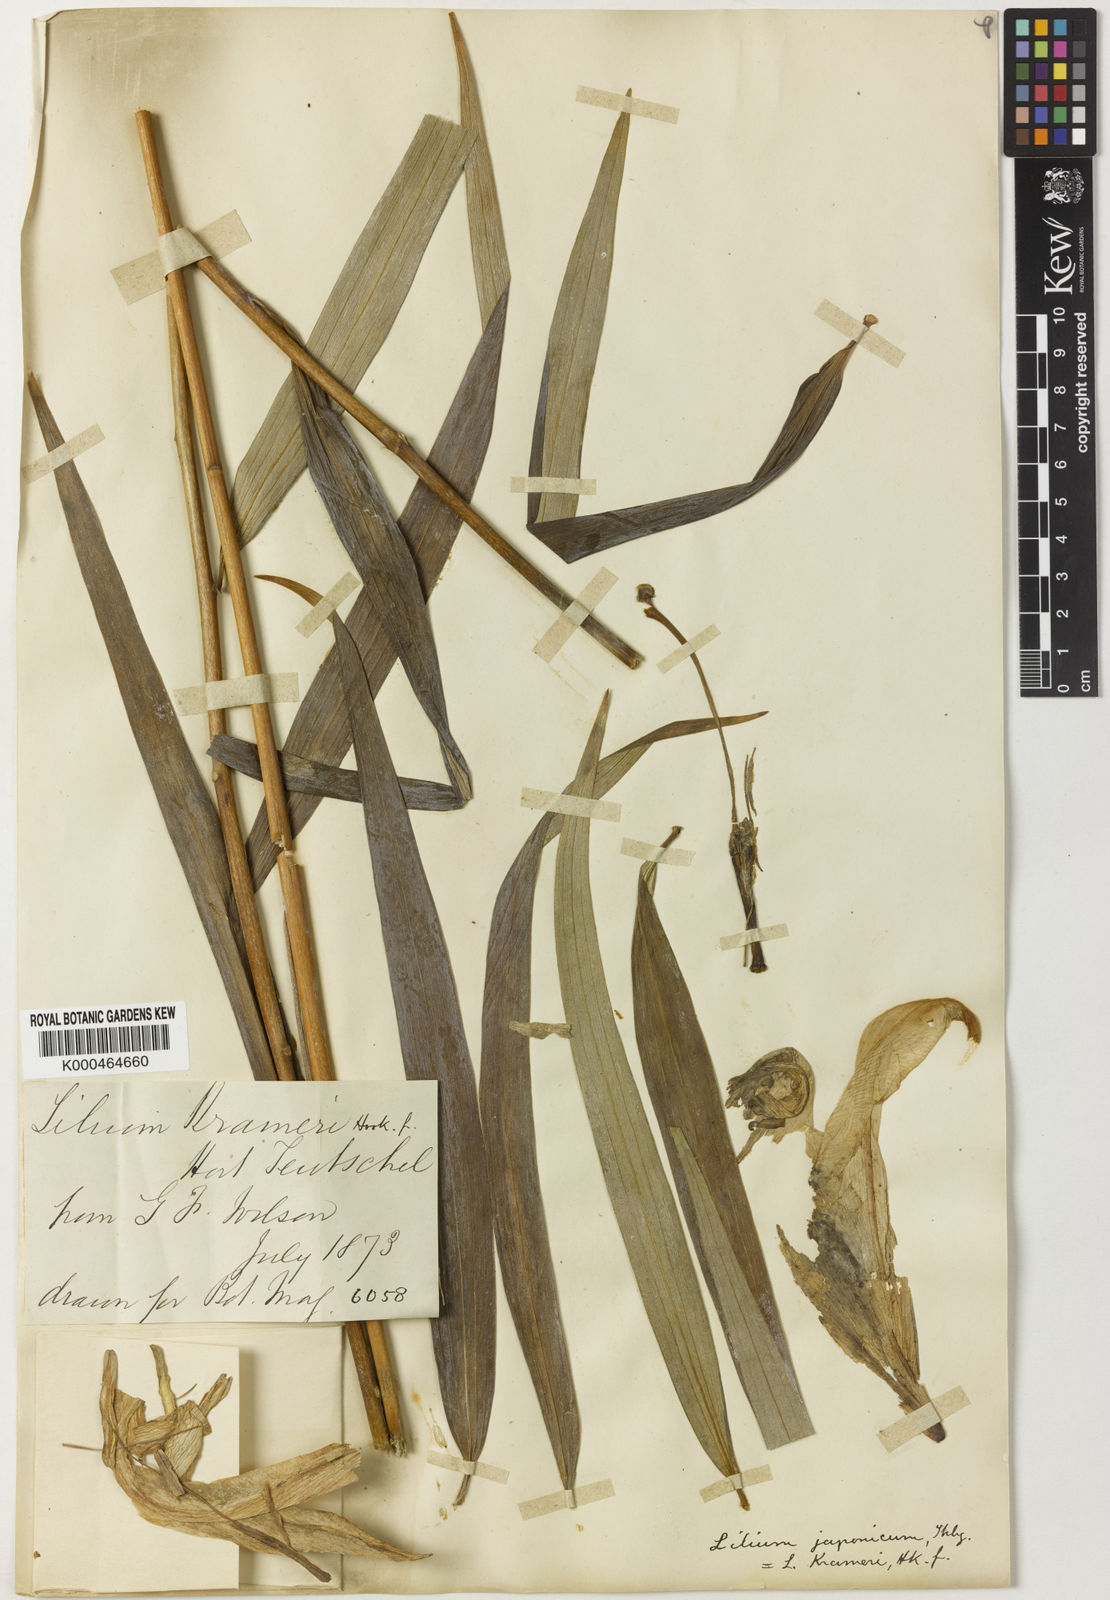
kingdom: Plantae
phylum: Tracheophyta
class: Liliopsida
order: Liliales
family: Liliaceae
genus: Lilium
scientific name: Lilium
